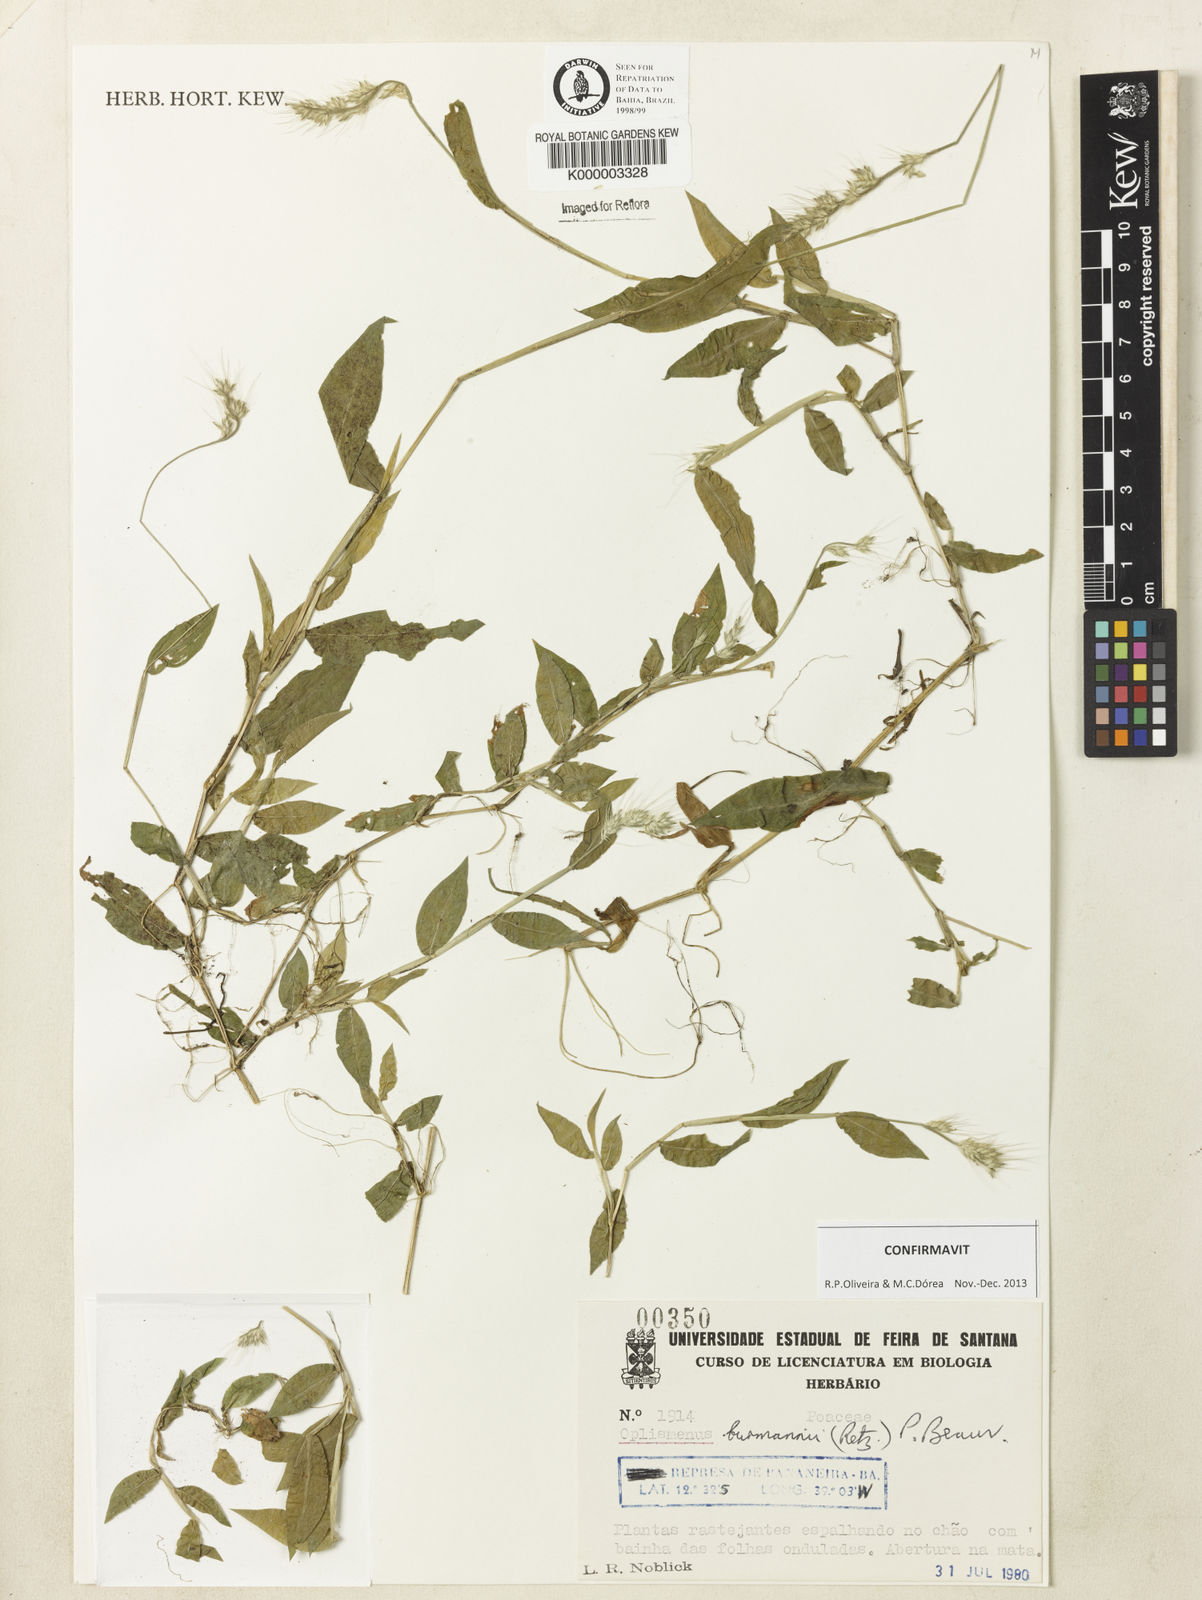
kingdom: Plantae
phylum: Tracheophyta
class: Liliopsida
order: Poales
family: Poaceae
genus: Oplismenus
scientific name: Oplismenus burmanni
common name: Burmann's basketgrass
